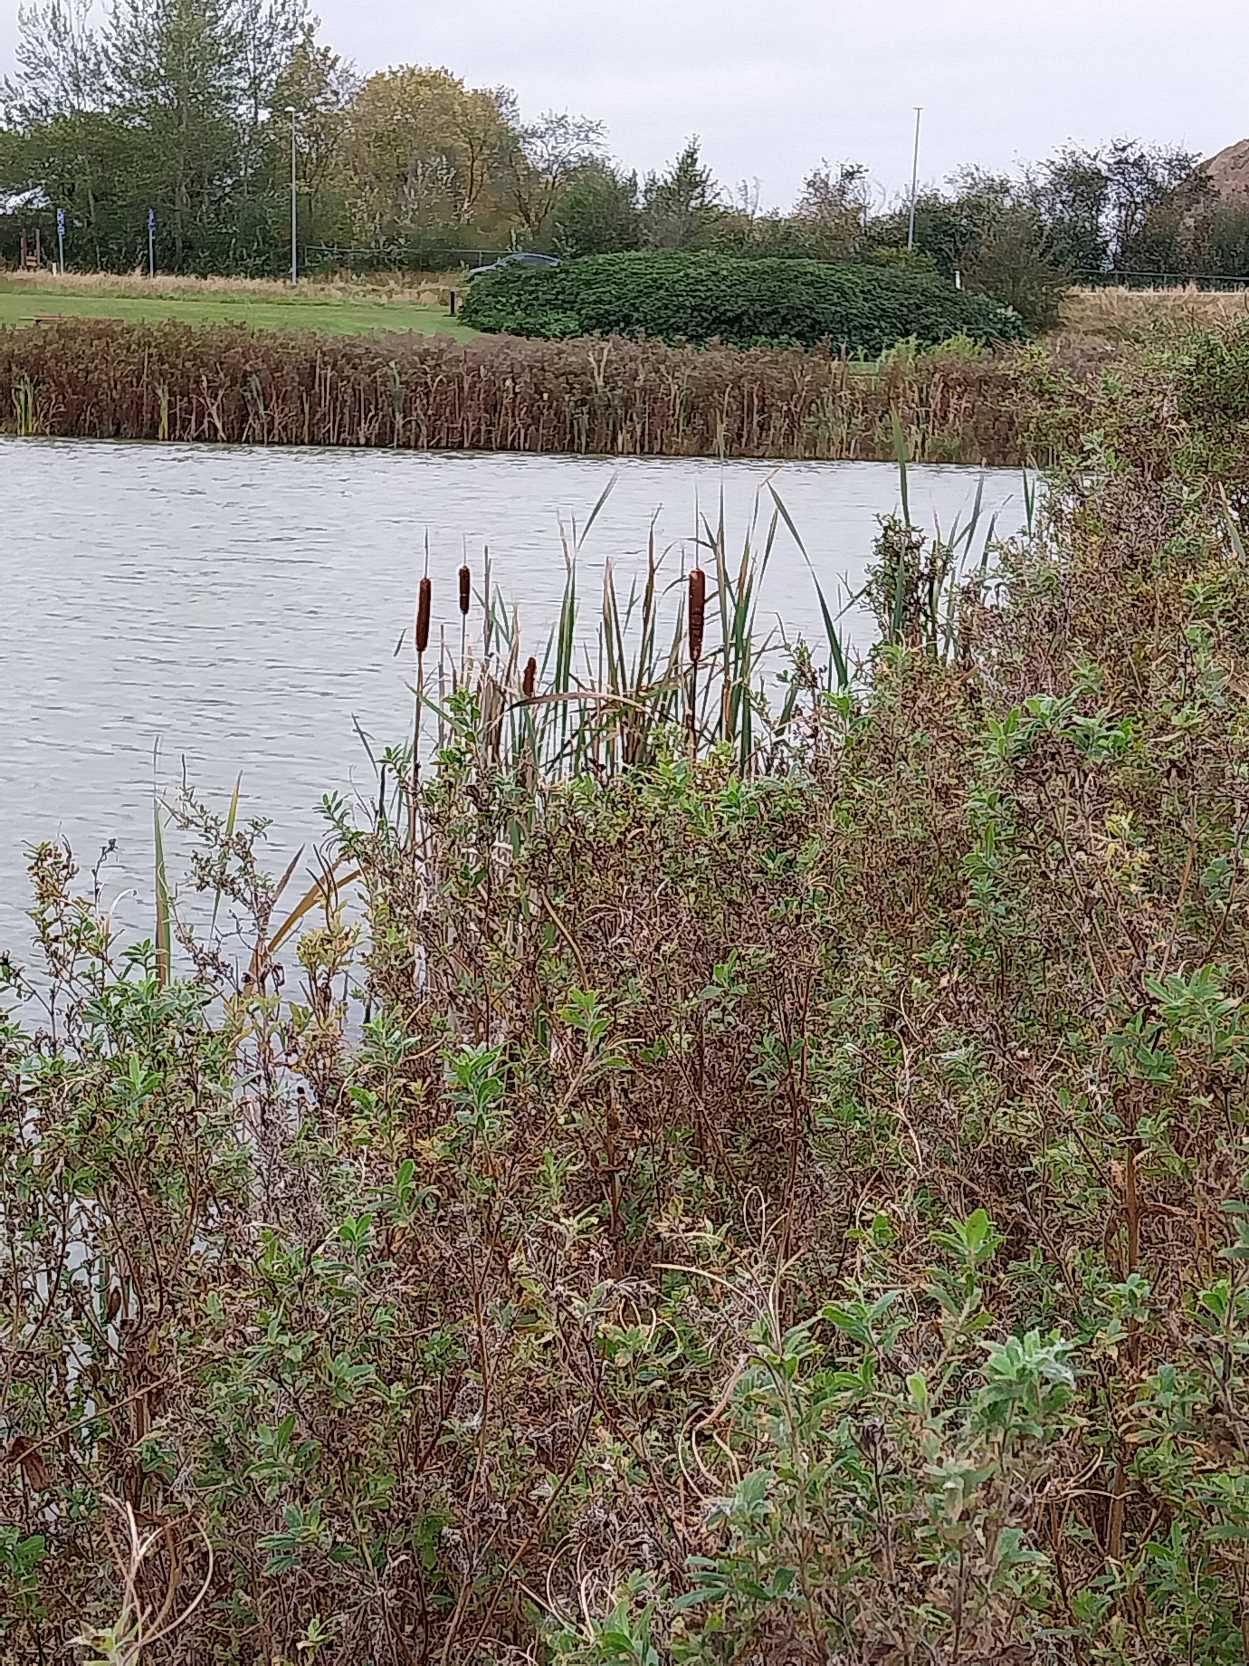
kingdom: Plantae
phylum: Tracheophyta
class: Liliopsida
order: Poales
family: Typhaceae
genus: Typha
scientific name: Typha latifolia
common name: Bredbladet dunhammer
